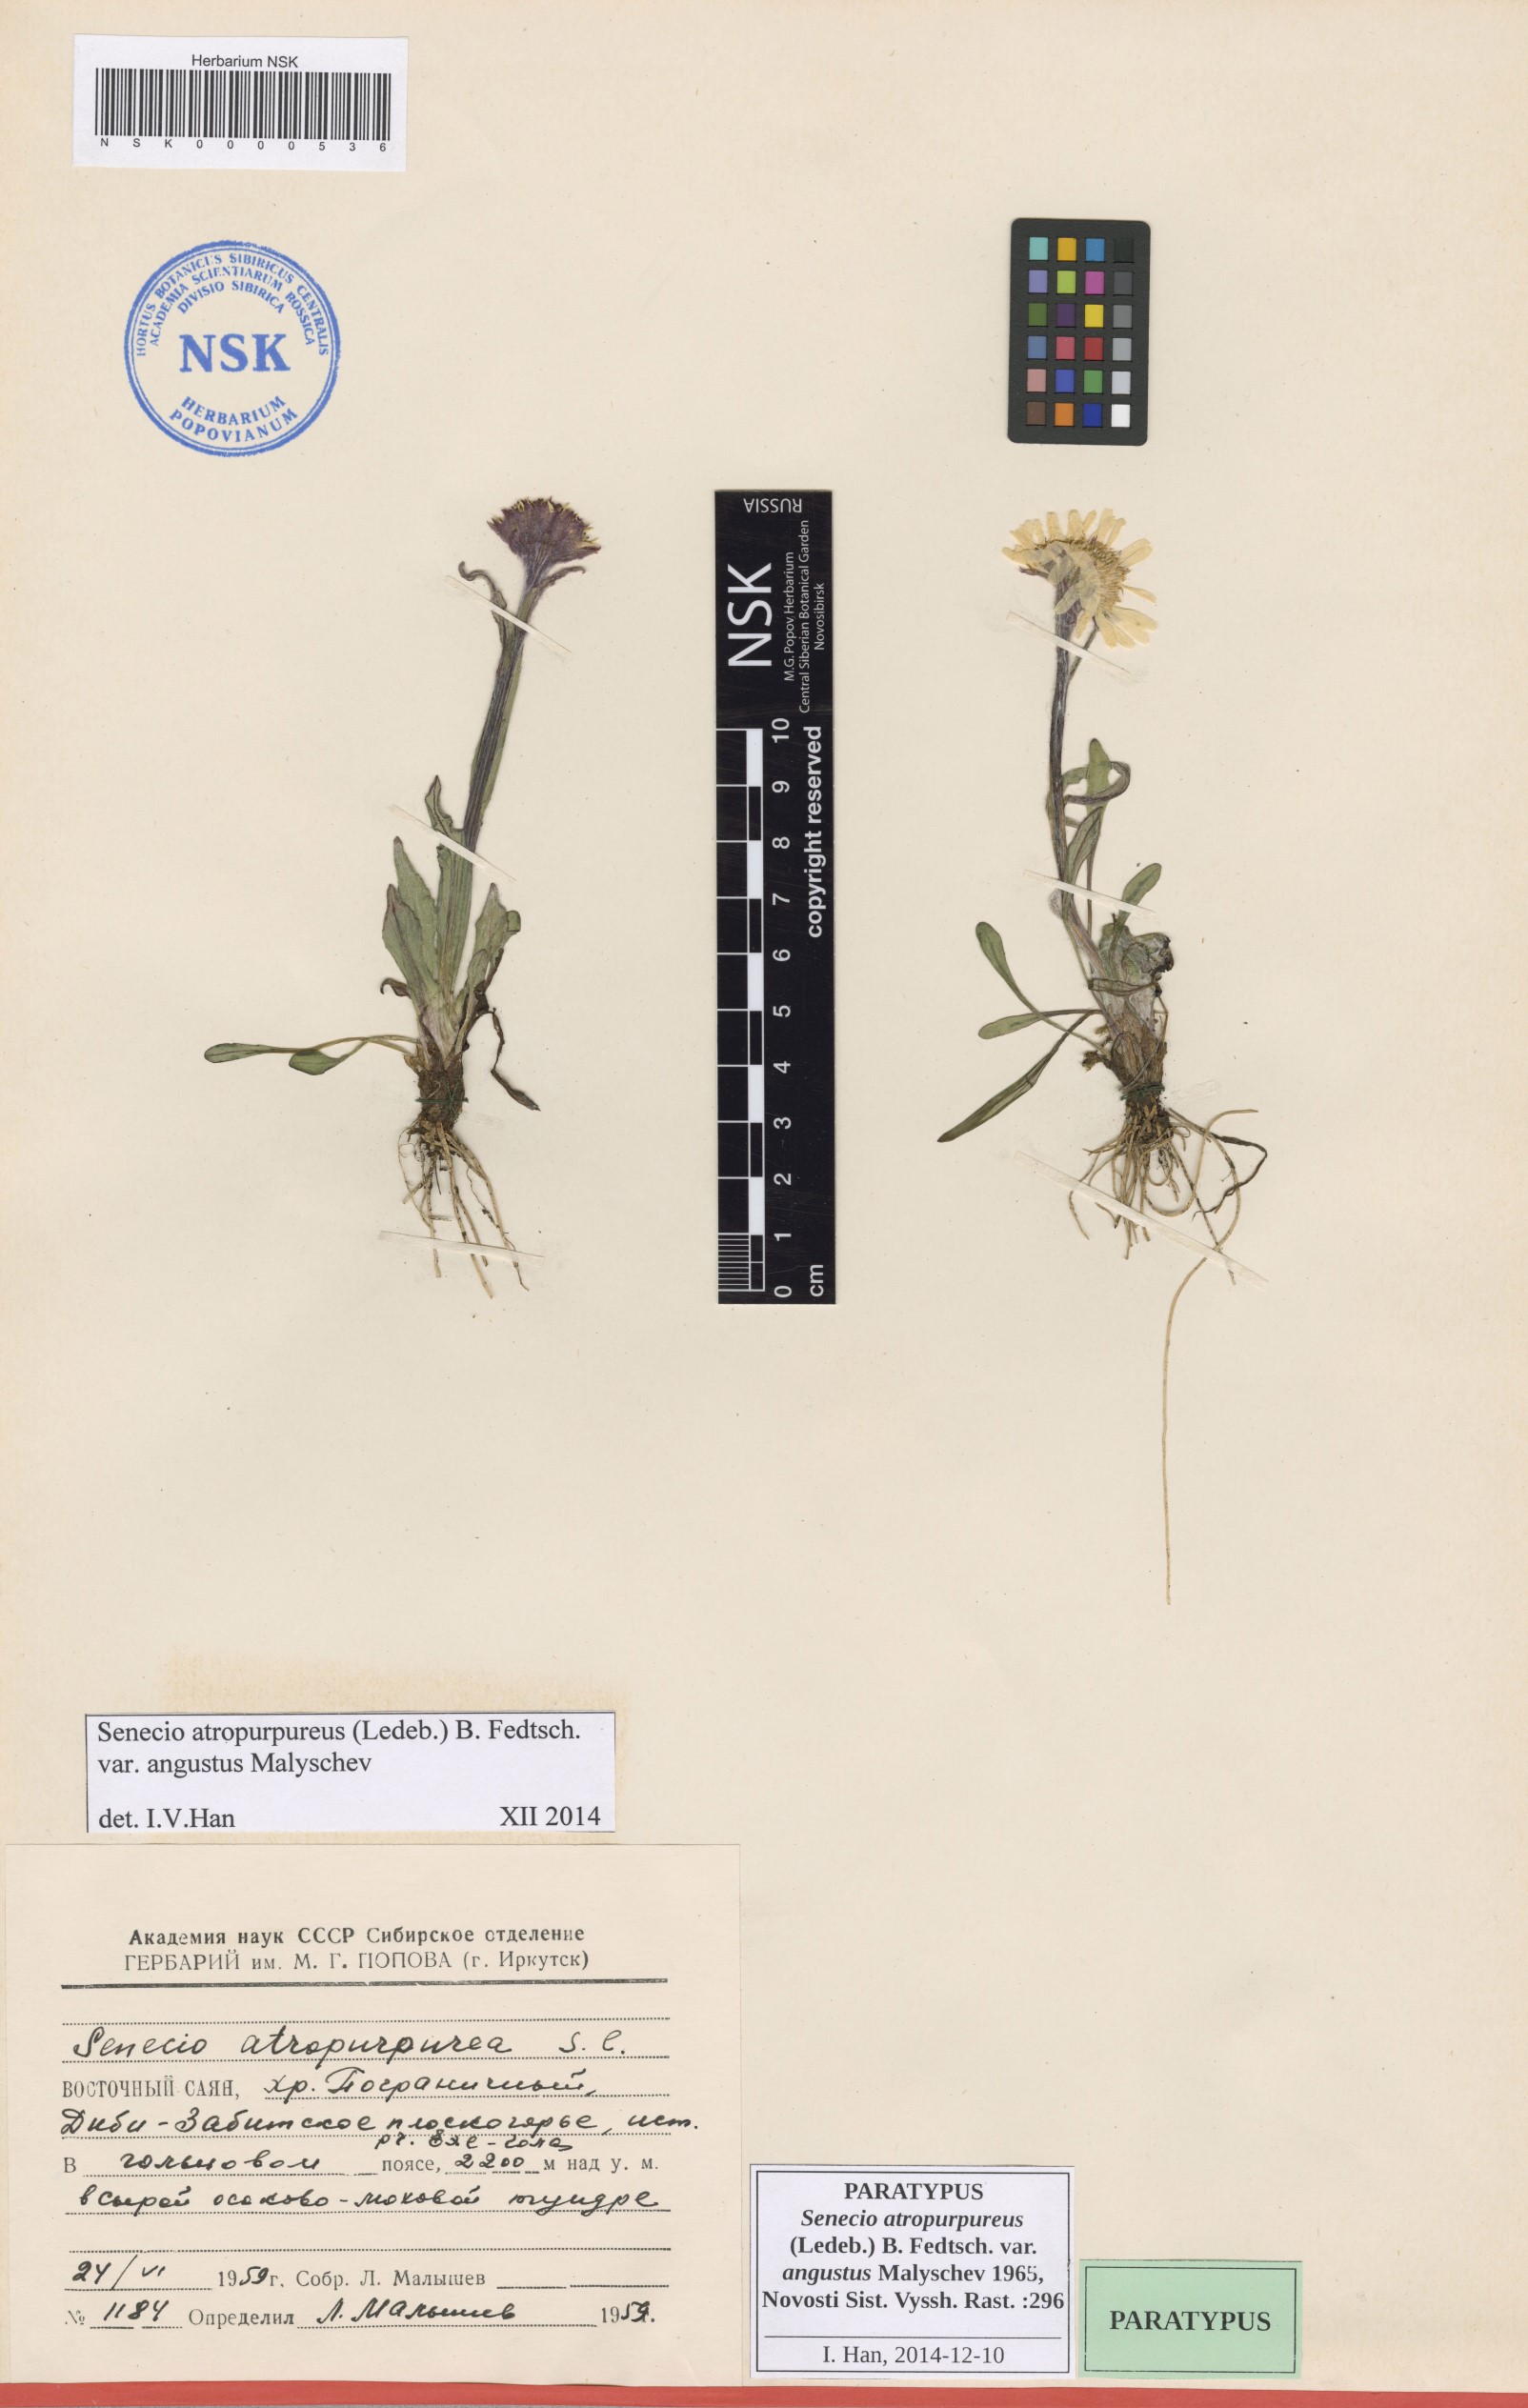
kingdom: Plantae
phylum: Tracheophyta
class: Magnoliopsida
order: Asterales
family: Asteraceae
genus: Tephroseris
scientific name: Tephroseris integrifolia
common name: Field fleawort
